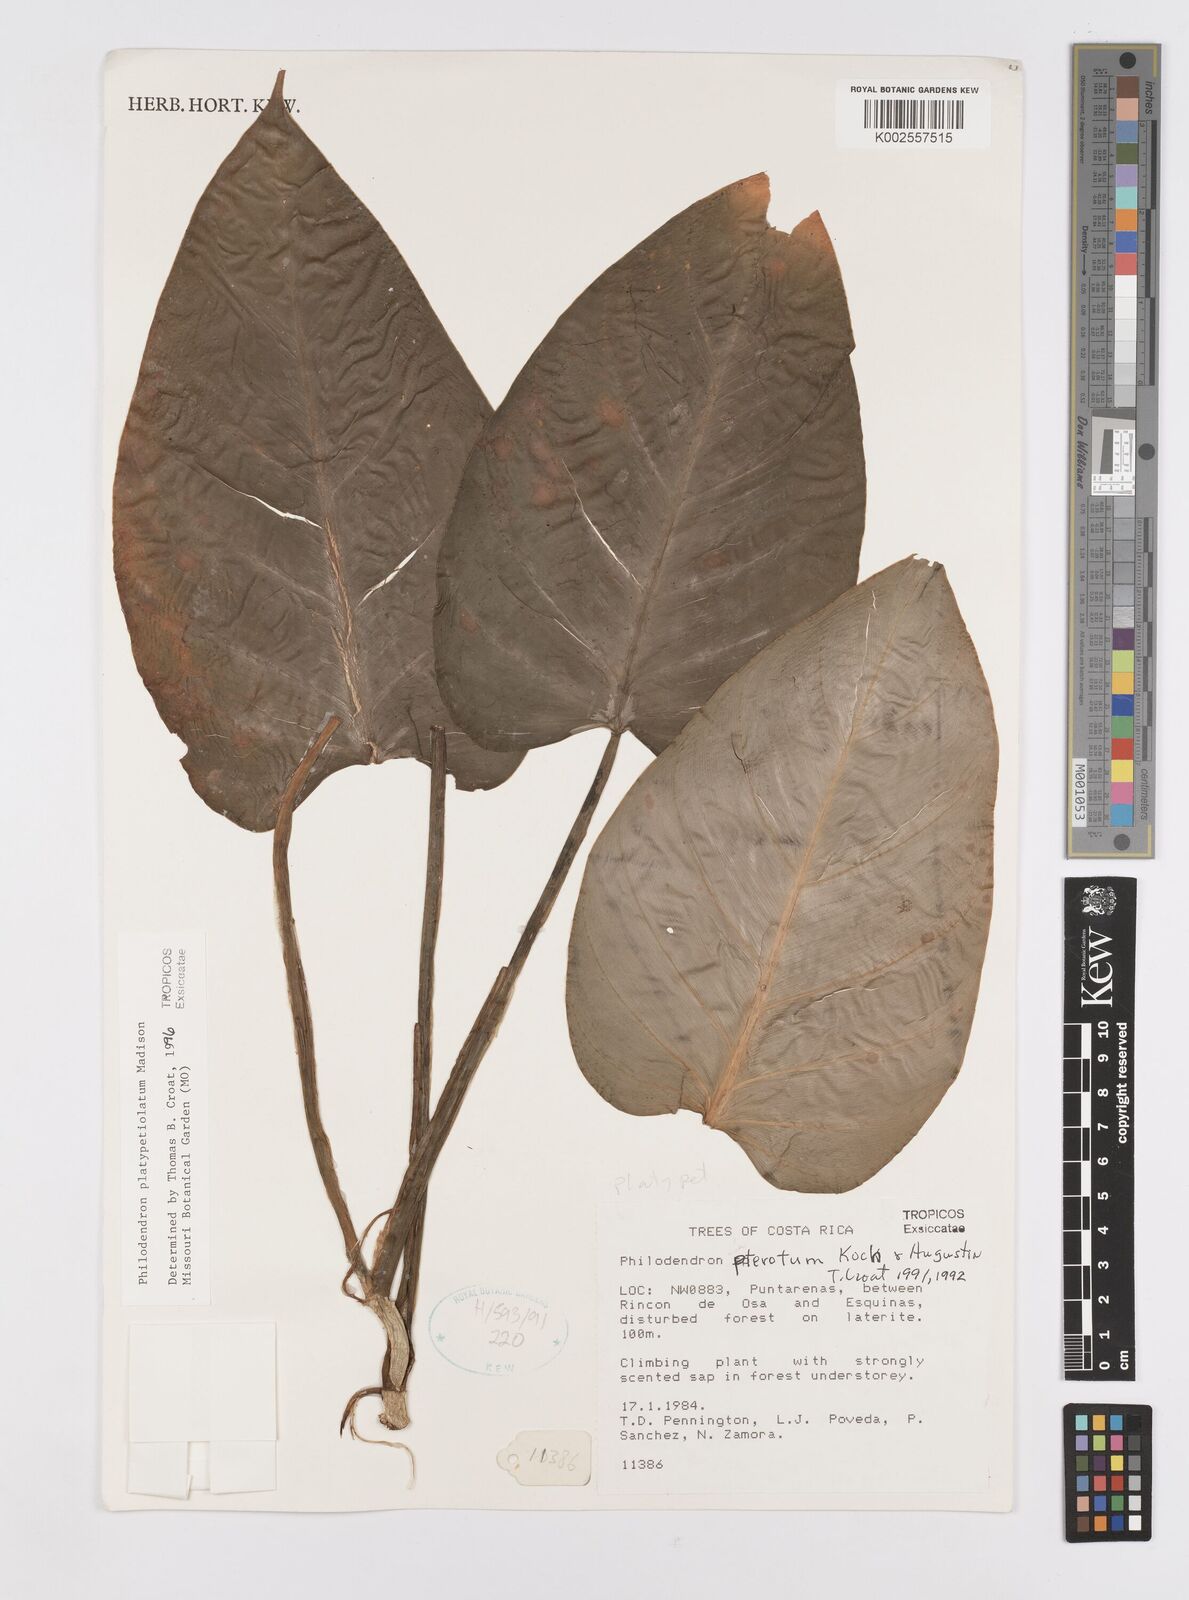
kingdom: Plantae
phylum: Tracheophyta
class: Liliopsida
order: Alismatales
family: Araceae
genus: Philodendron
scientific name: Philodendron platypetiolatum
